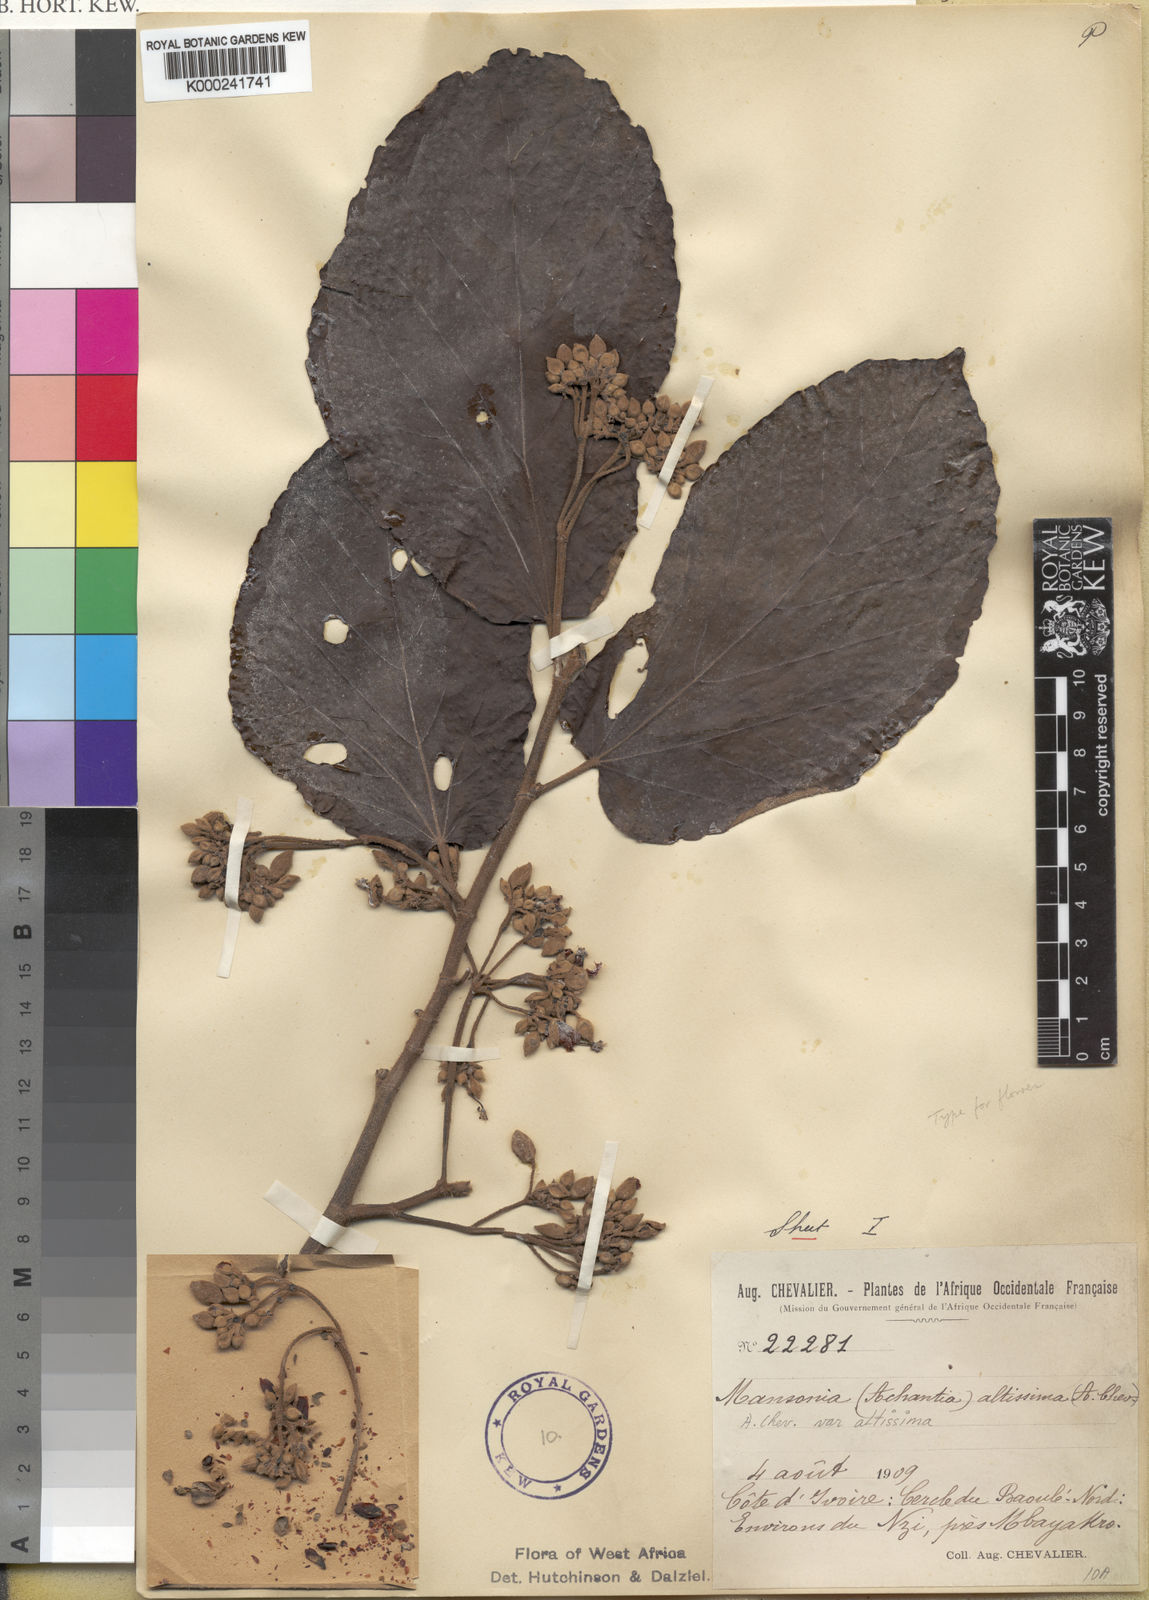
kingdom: Plantae
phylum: Tracheophyta
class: Magnoliopsida
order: Malvales
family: Malvaceae
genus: Mansonia
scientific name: Mansonia altissima
